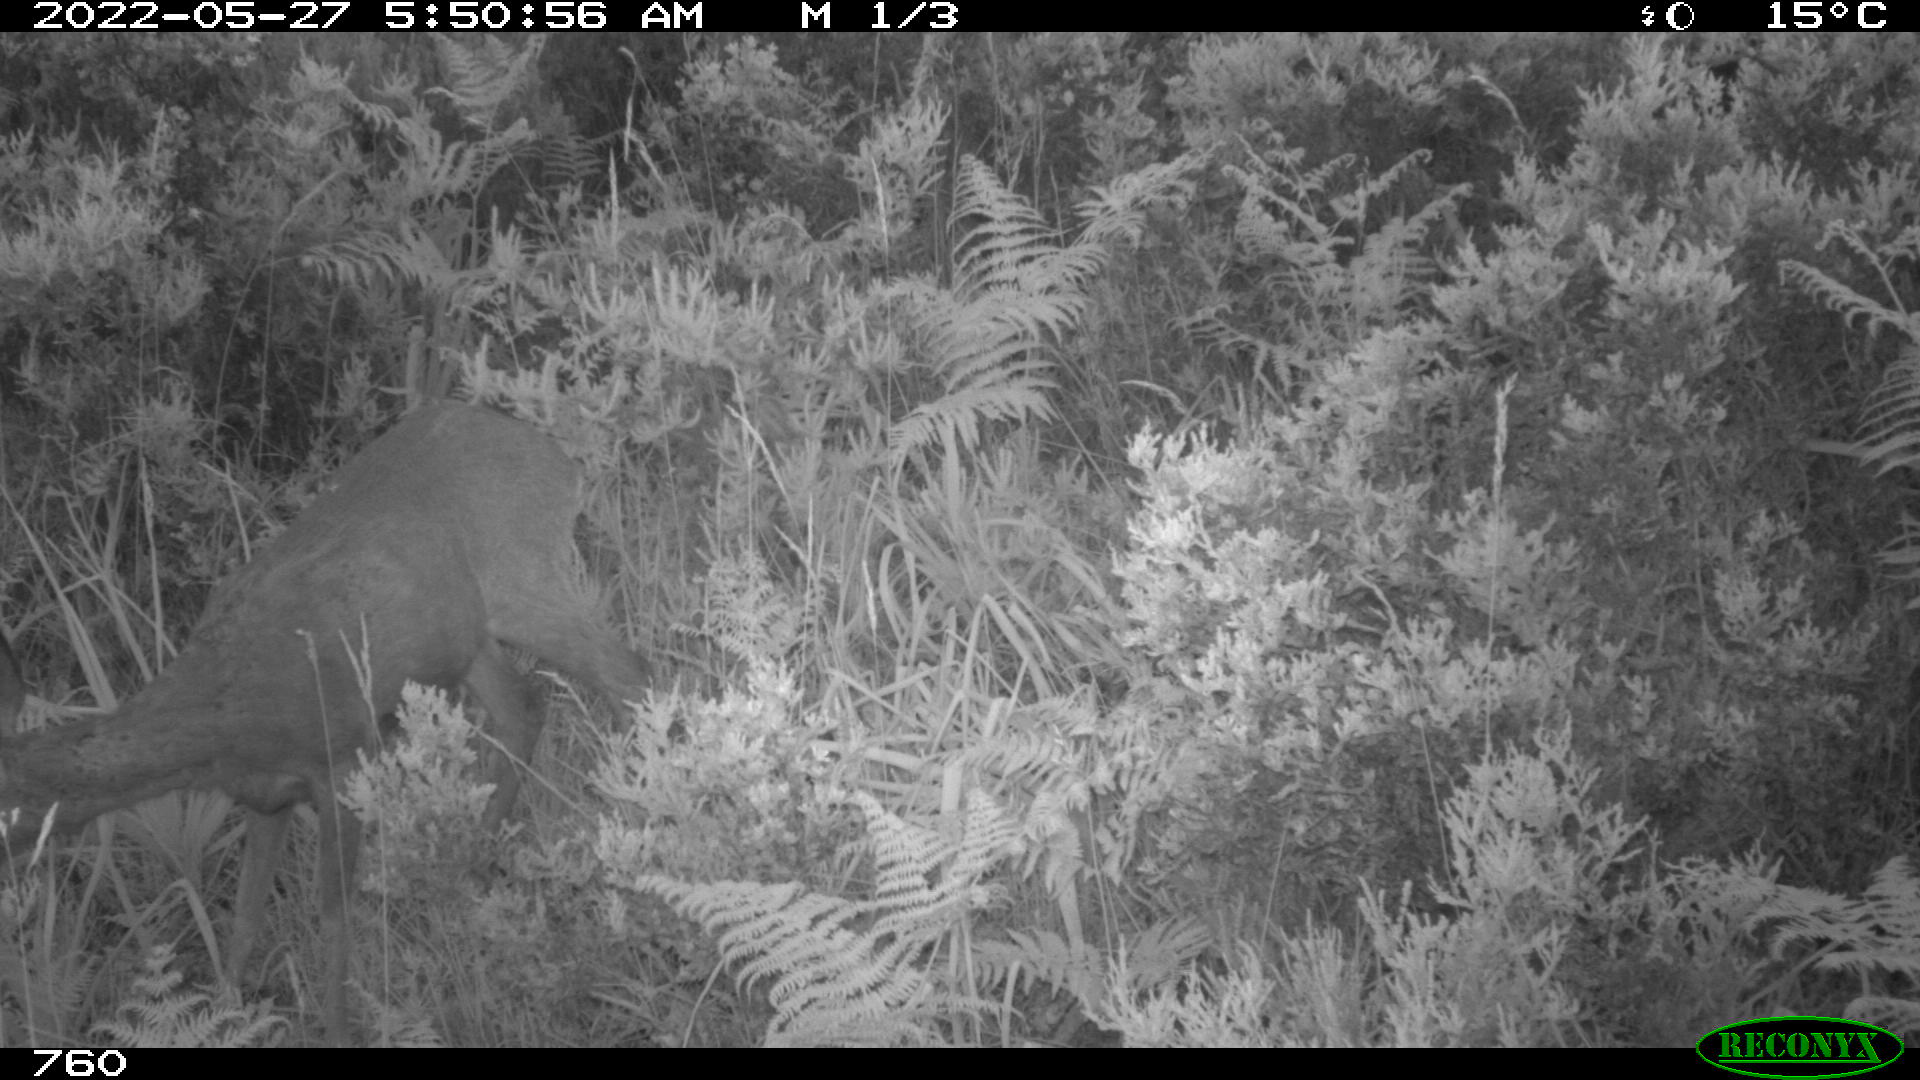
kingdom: Animalia
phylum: Chordata
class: Mammalia
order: Artiodactyla
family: Cervidae
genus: Capreolus
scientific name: Capreolus capreolus
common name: Western roe deer
